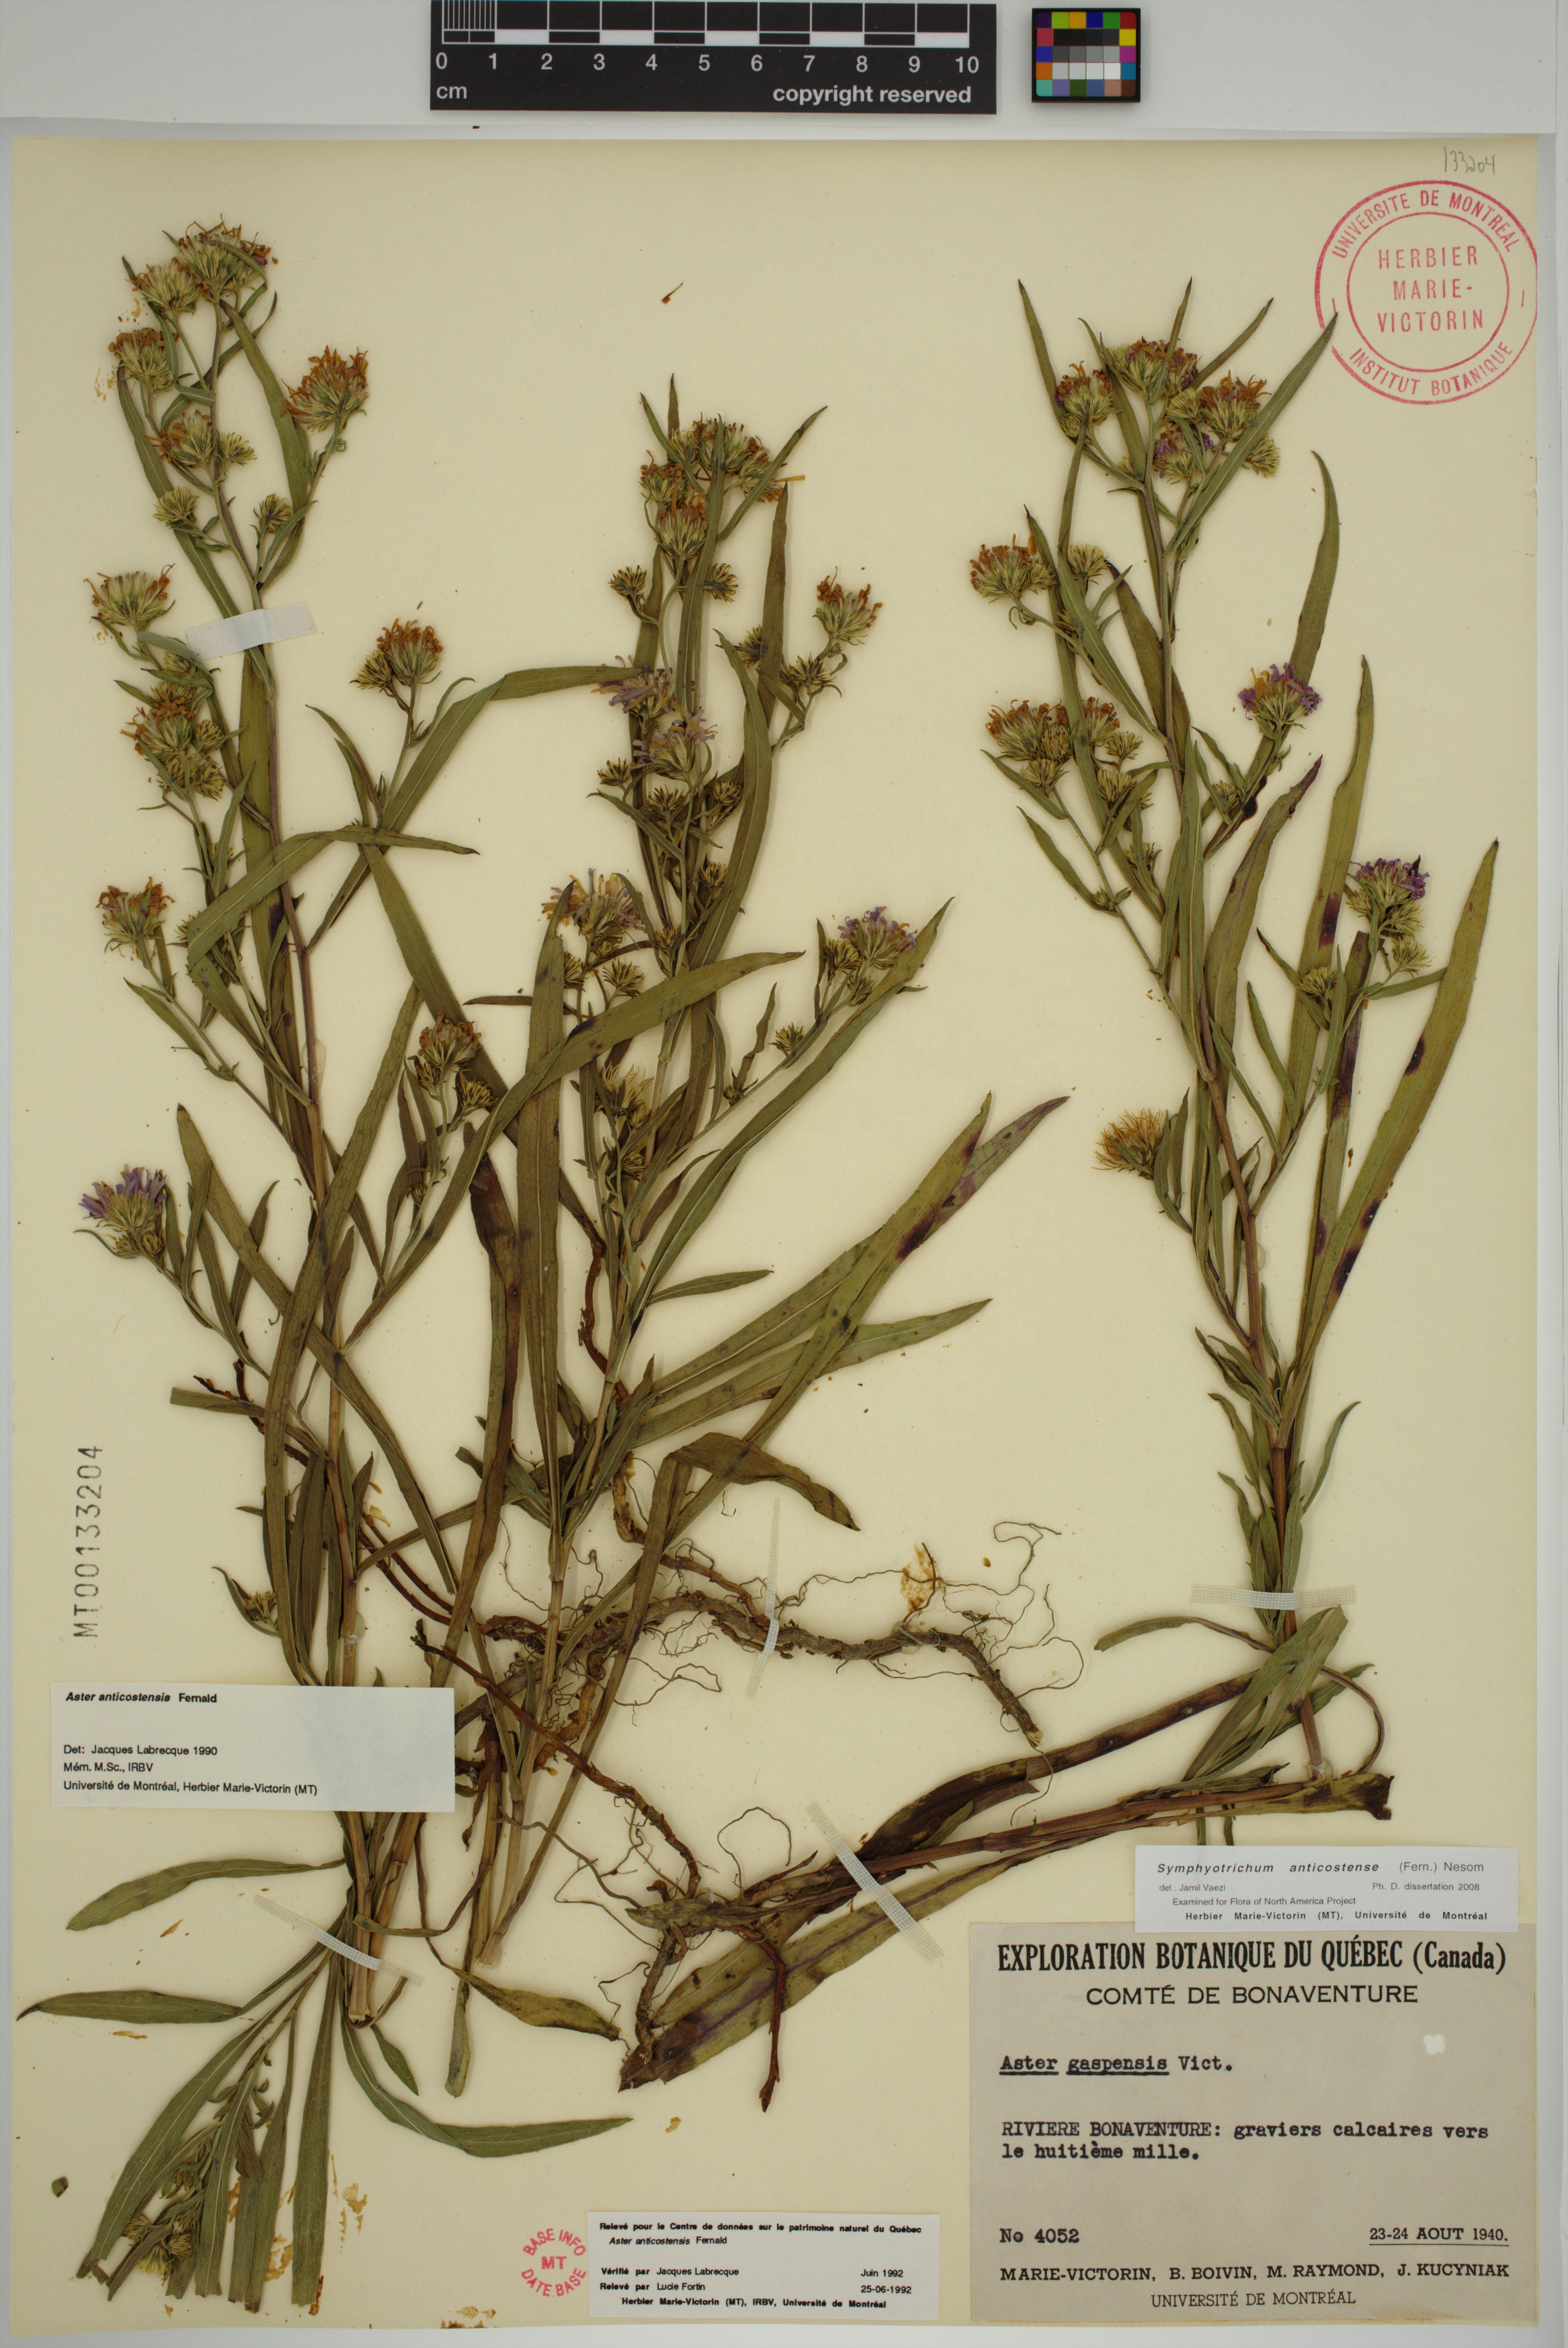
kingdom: Plantae
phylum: Tracheophyta
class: Magnoliopsida
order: Asterales
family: Asteraceae
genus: Symphyotrichum
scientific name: Symphyotrichum anticostense
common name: Anticosti island aster
